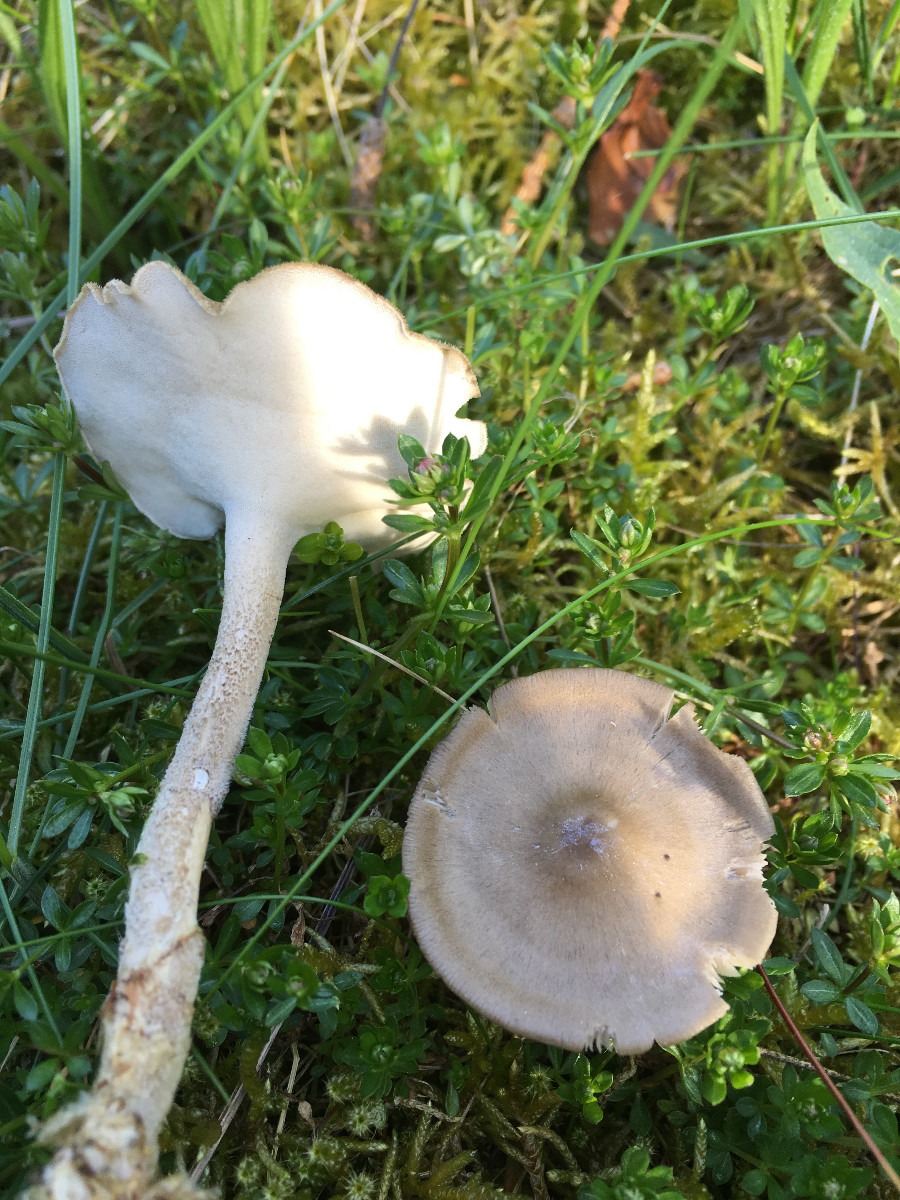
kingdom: Fungi
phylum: Basidiomycota
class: Agaricomycetes
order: Polyporales
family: Polyporaceae
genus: Lentinus
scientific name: Lentinus substrictus
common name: forårs-stilkporesvamp
